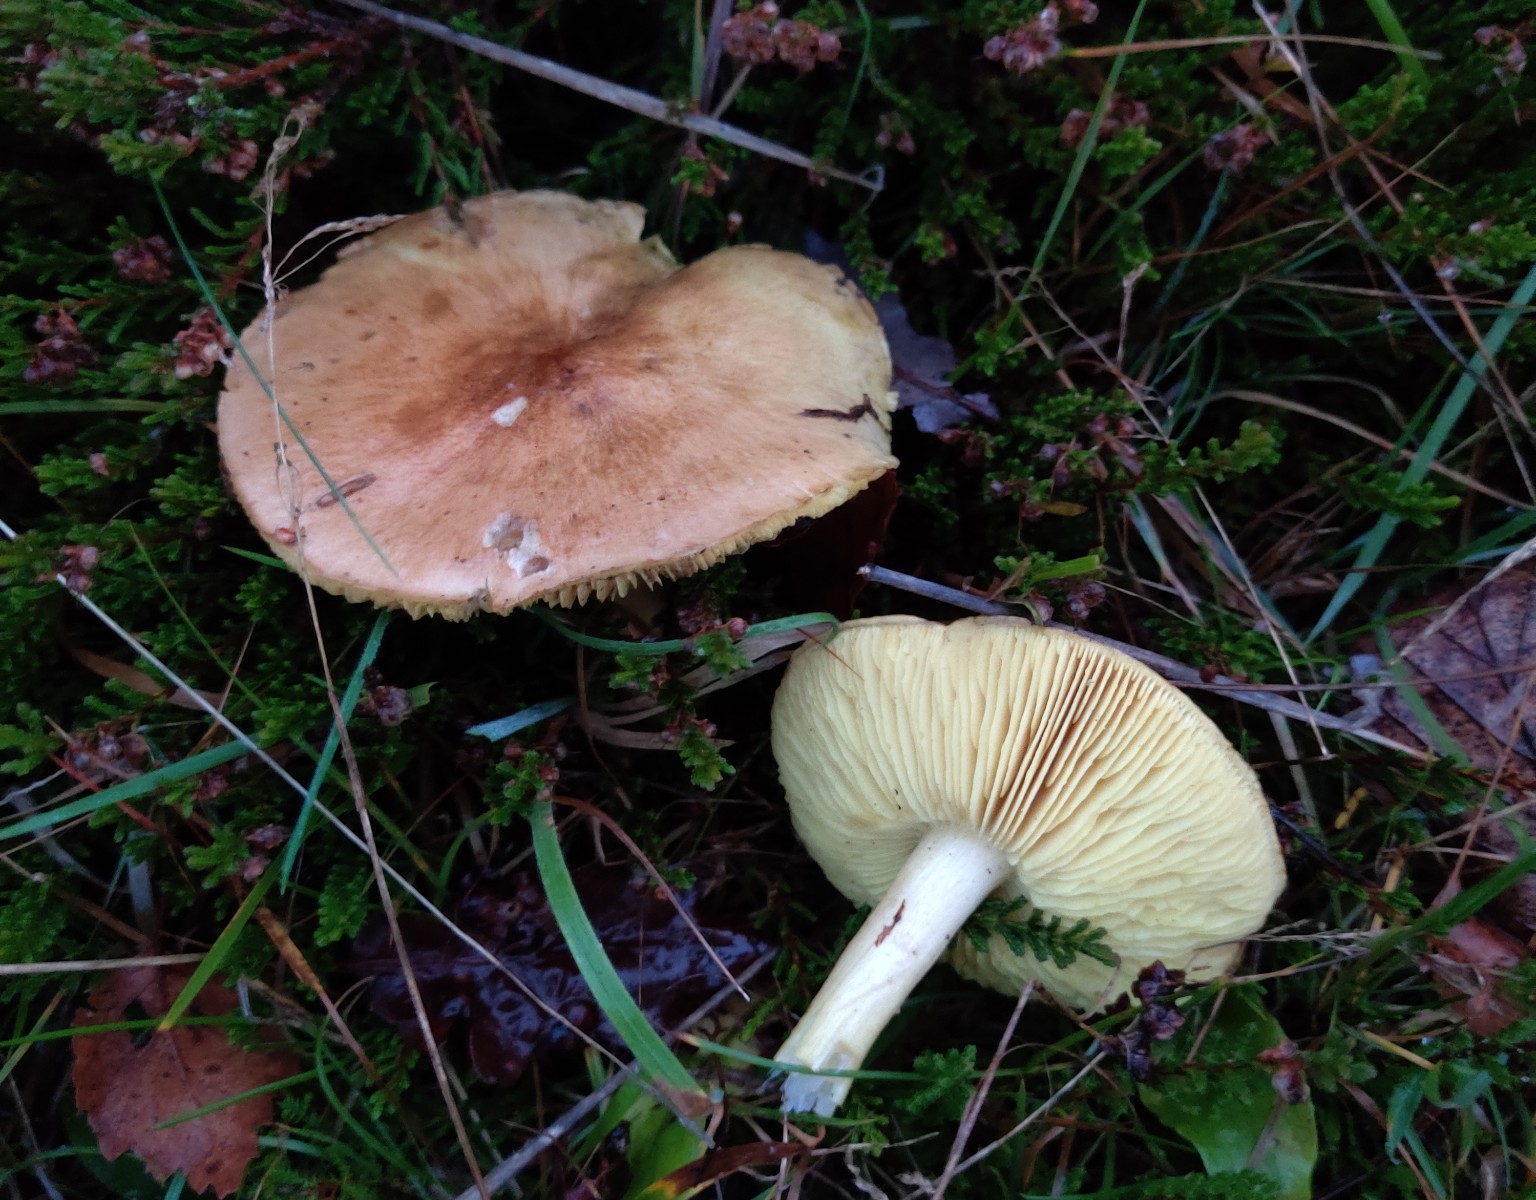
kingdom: Fungi
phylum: Basidiomycota
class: Agaricomycetes
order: Agaricales
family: Tricholomataceae
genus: Tricholoma
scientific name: Tricholoma
